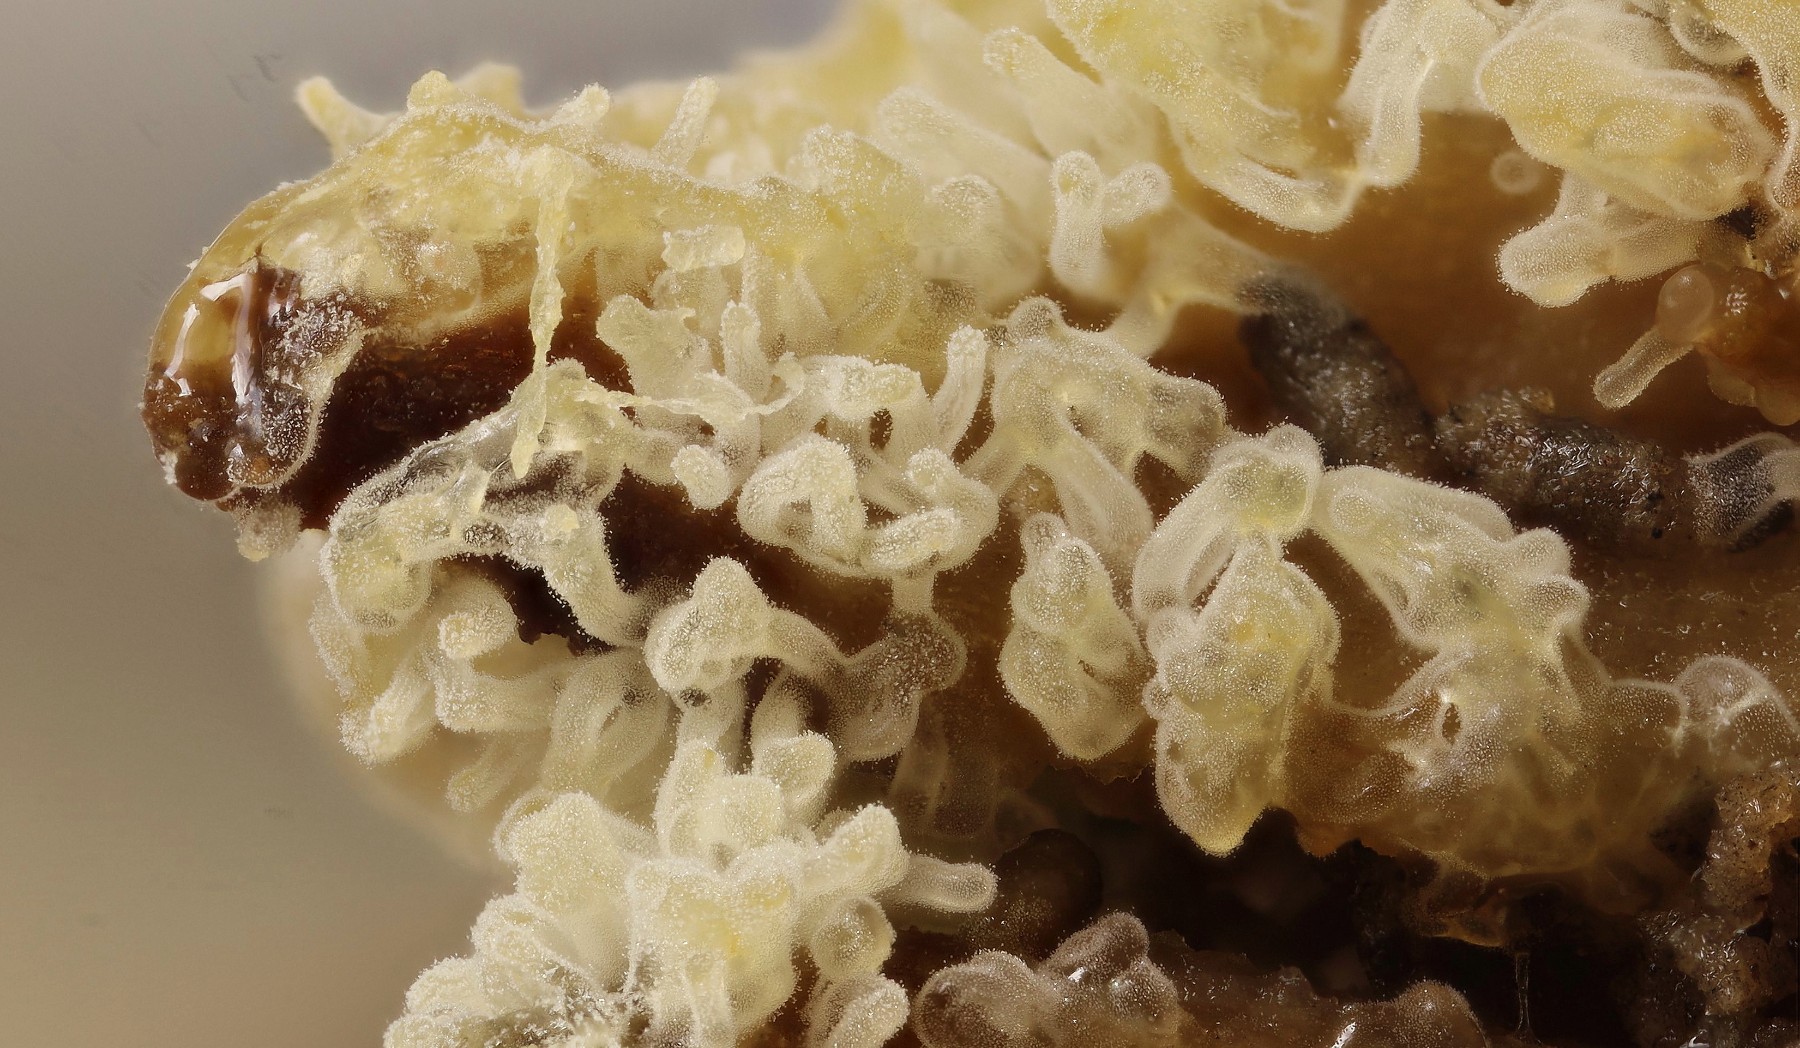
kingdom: Protozoa
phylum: Mycetozoa
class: Protosteliomycetes
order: Ceratiomyxales
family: Ceratiomyxaceae
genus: Ceratiomyxa
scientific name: Ceratiomyxa fruticulosa
